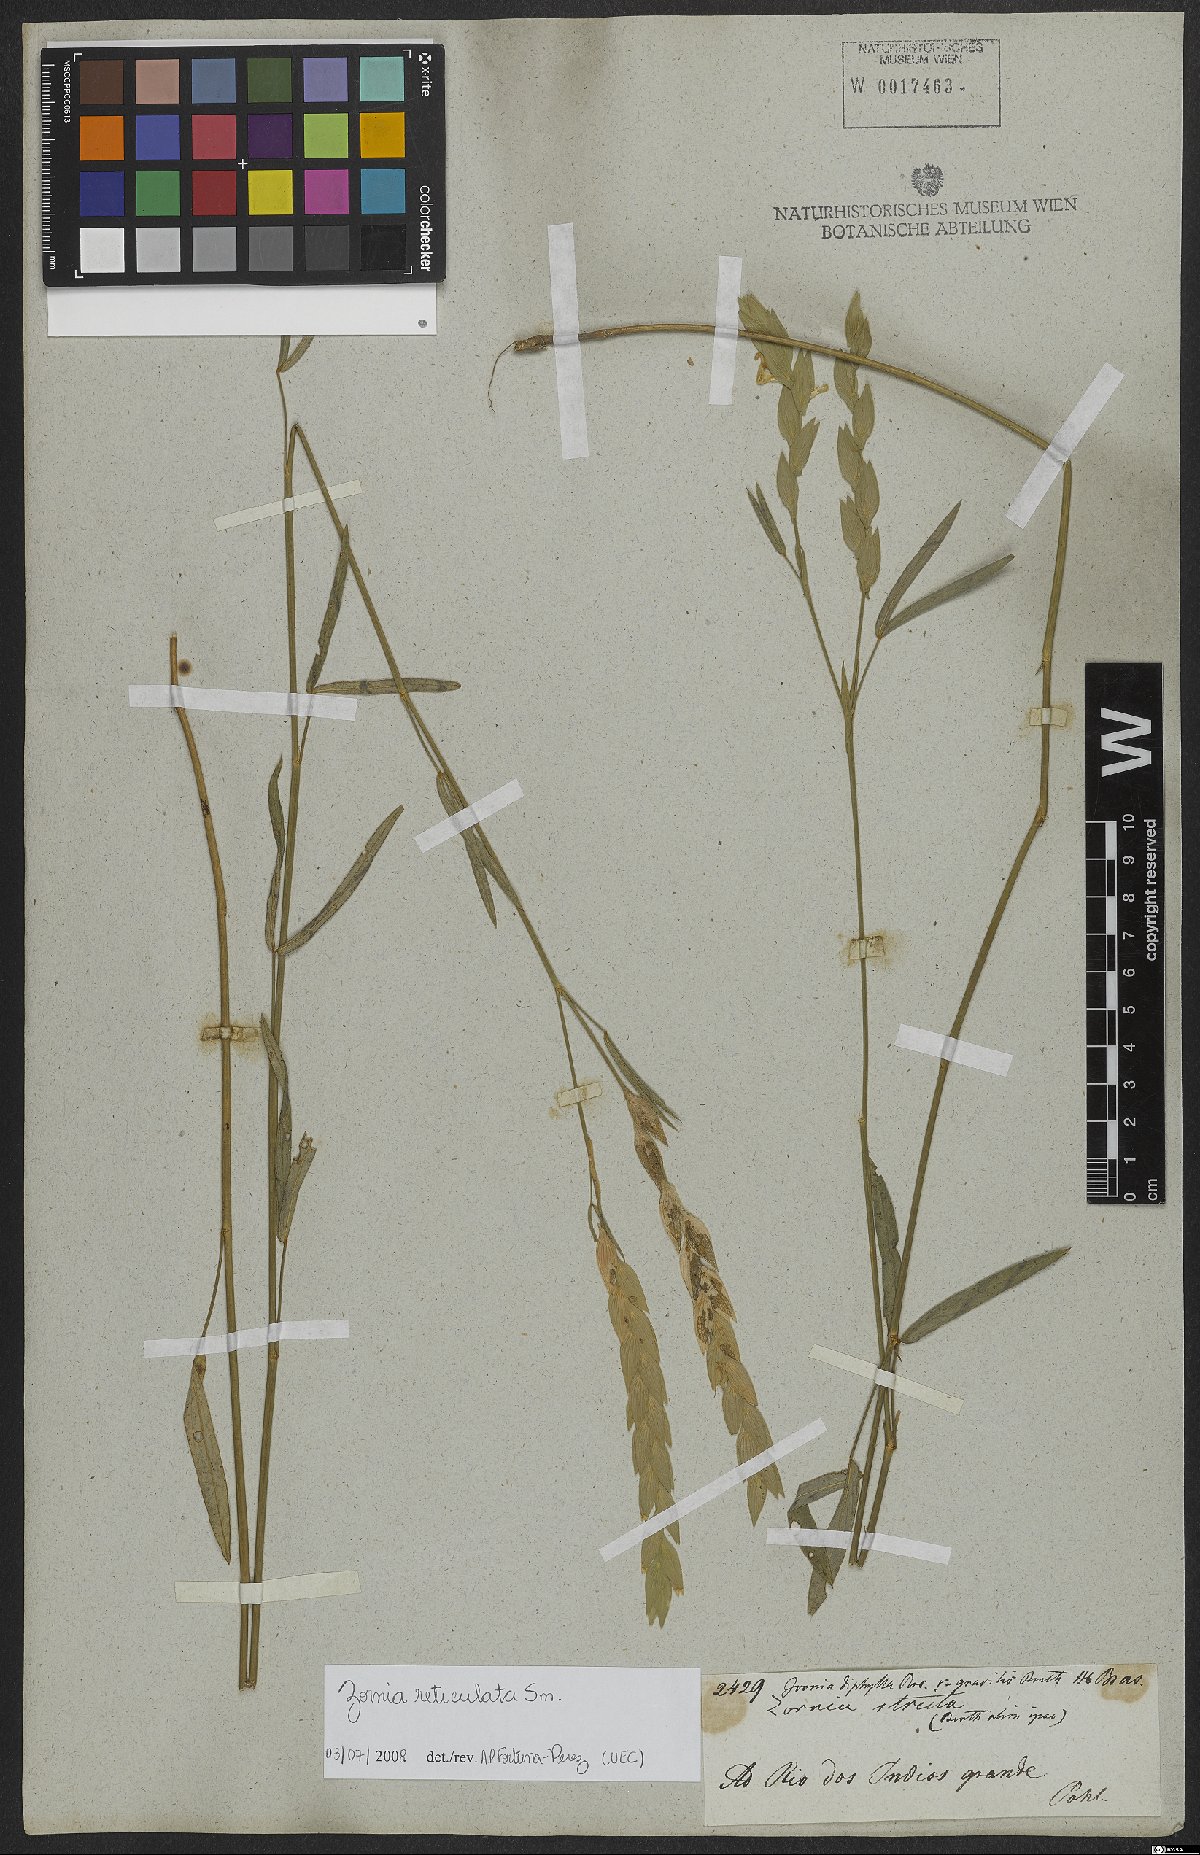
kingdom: Plantae
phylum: Tracheophyta
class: Magnoliopsida
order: Fabales
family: Fabaceae
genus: Zornia
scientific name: Zornia reticulata
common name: Reticulate viperina
